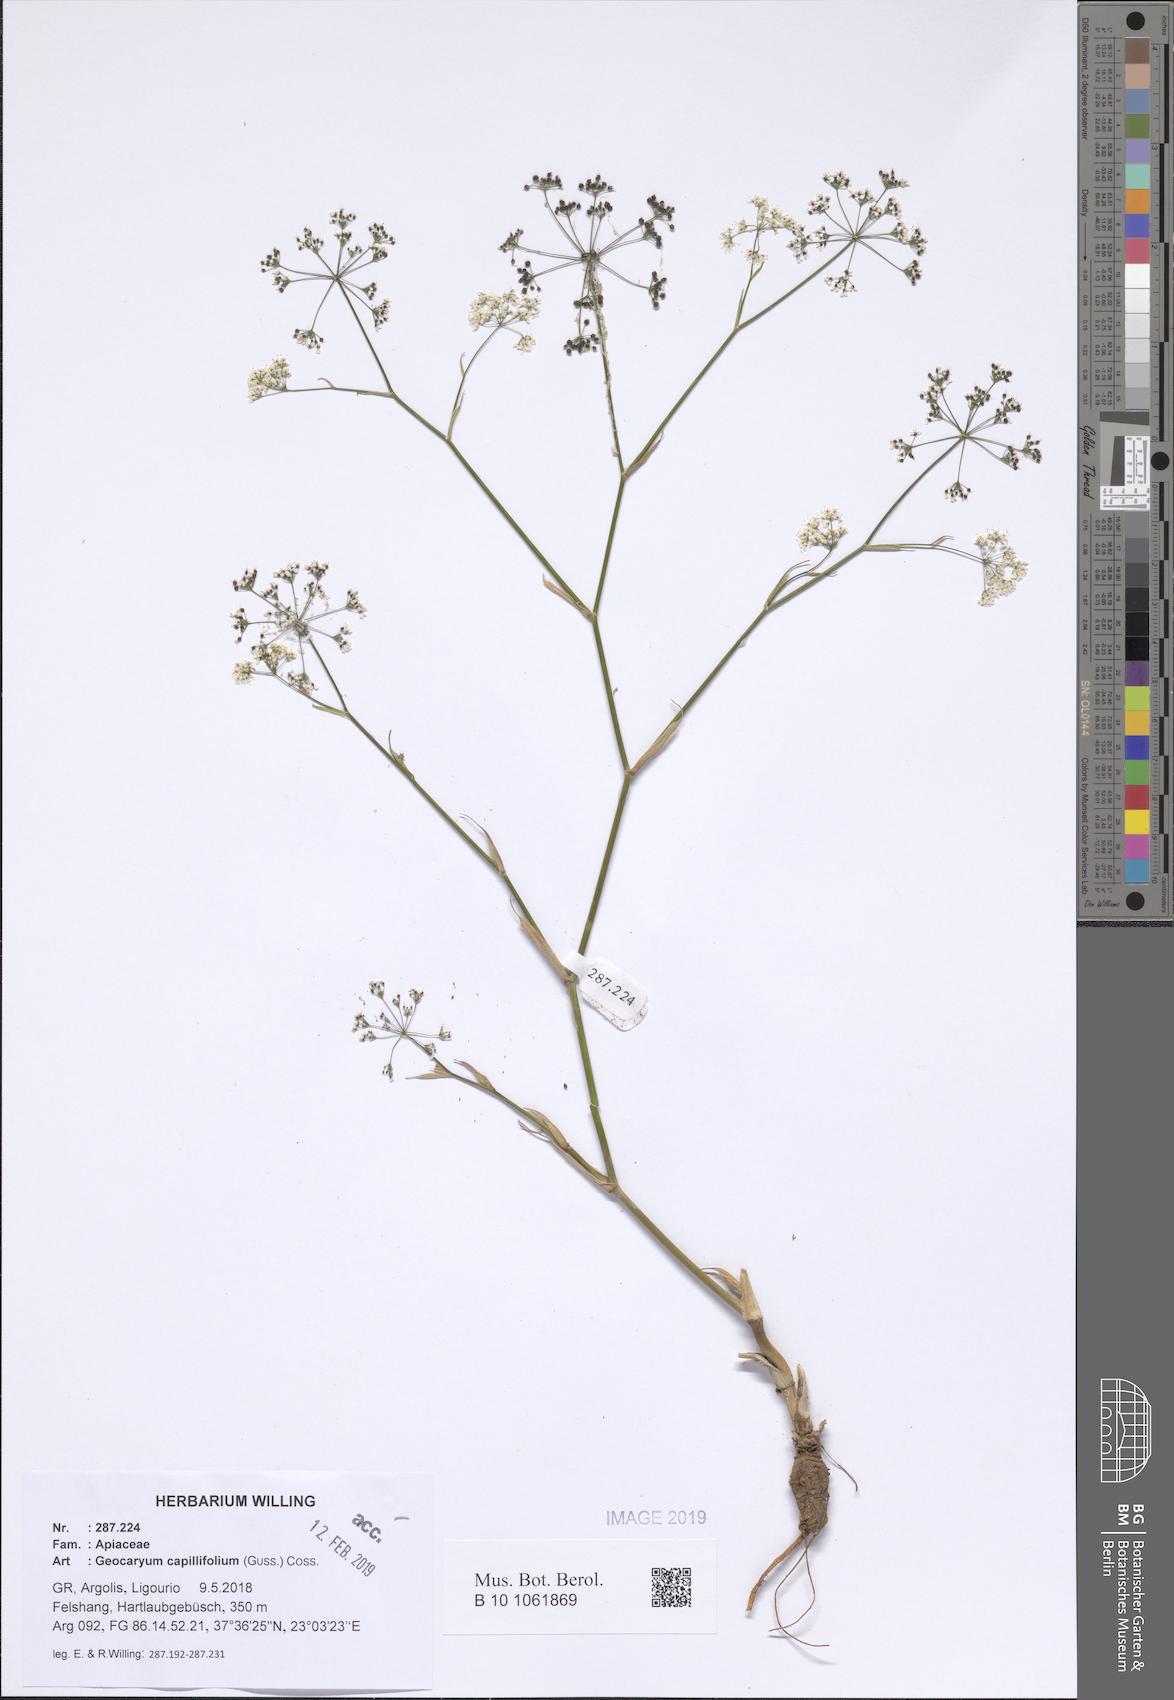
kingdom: Plantae
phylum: Tracheophyta
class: Magnoliopsida
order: Apiales
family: Apiaceae
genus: Geocaryum
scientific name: Geocaryum capillifolium
